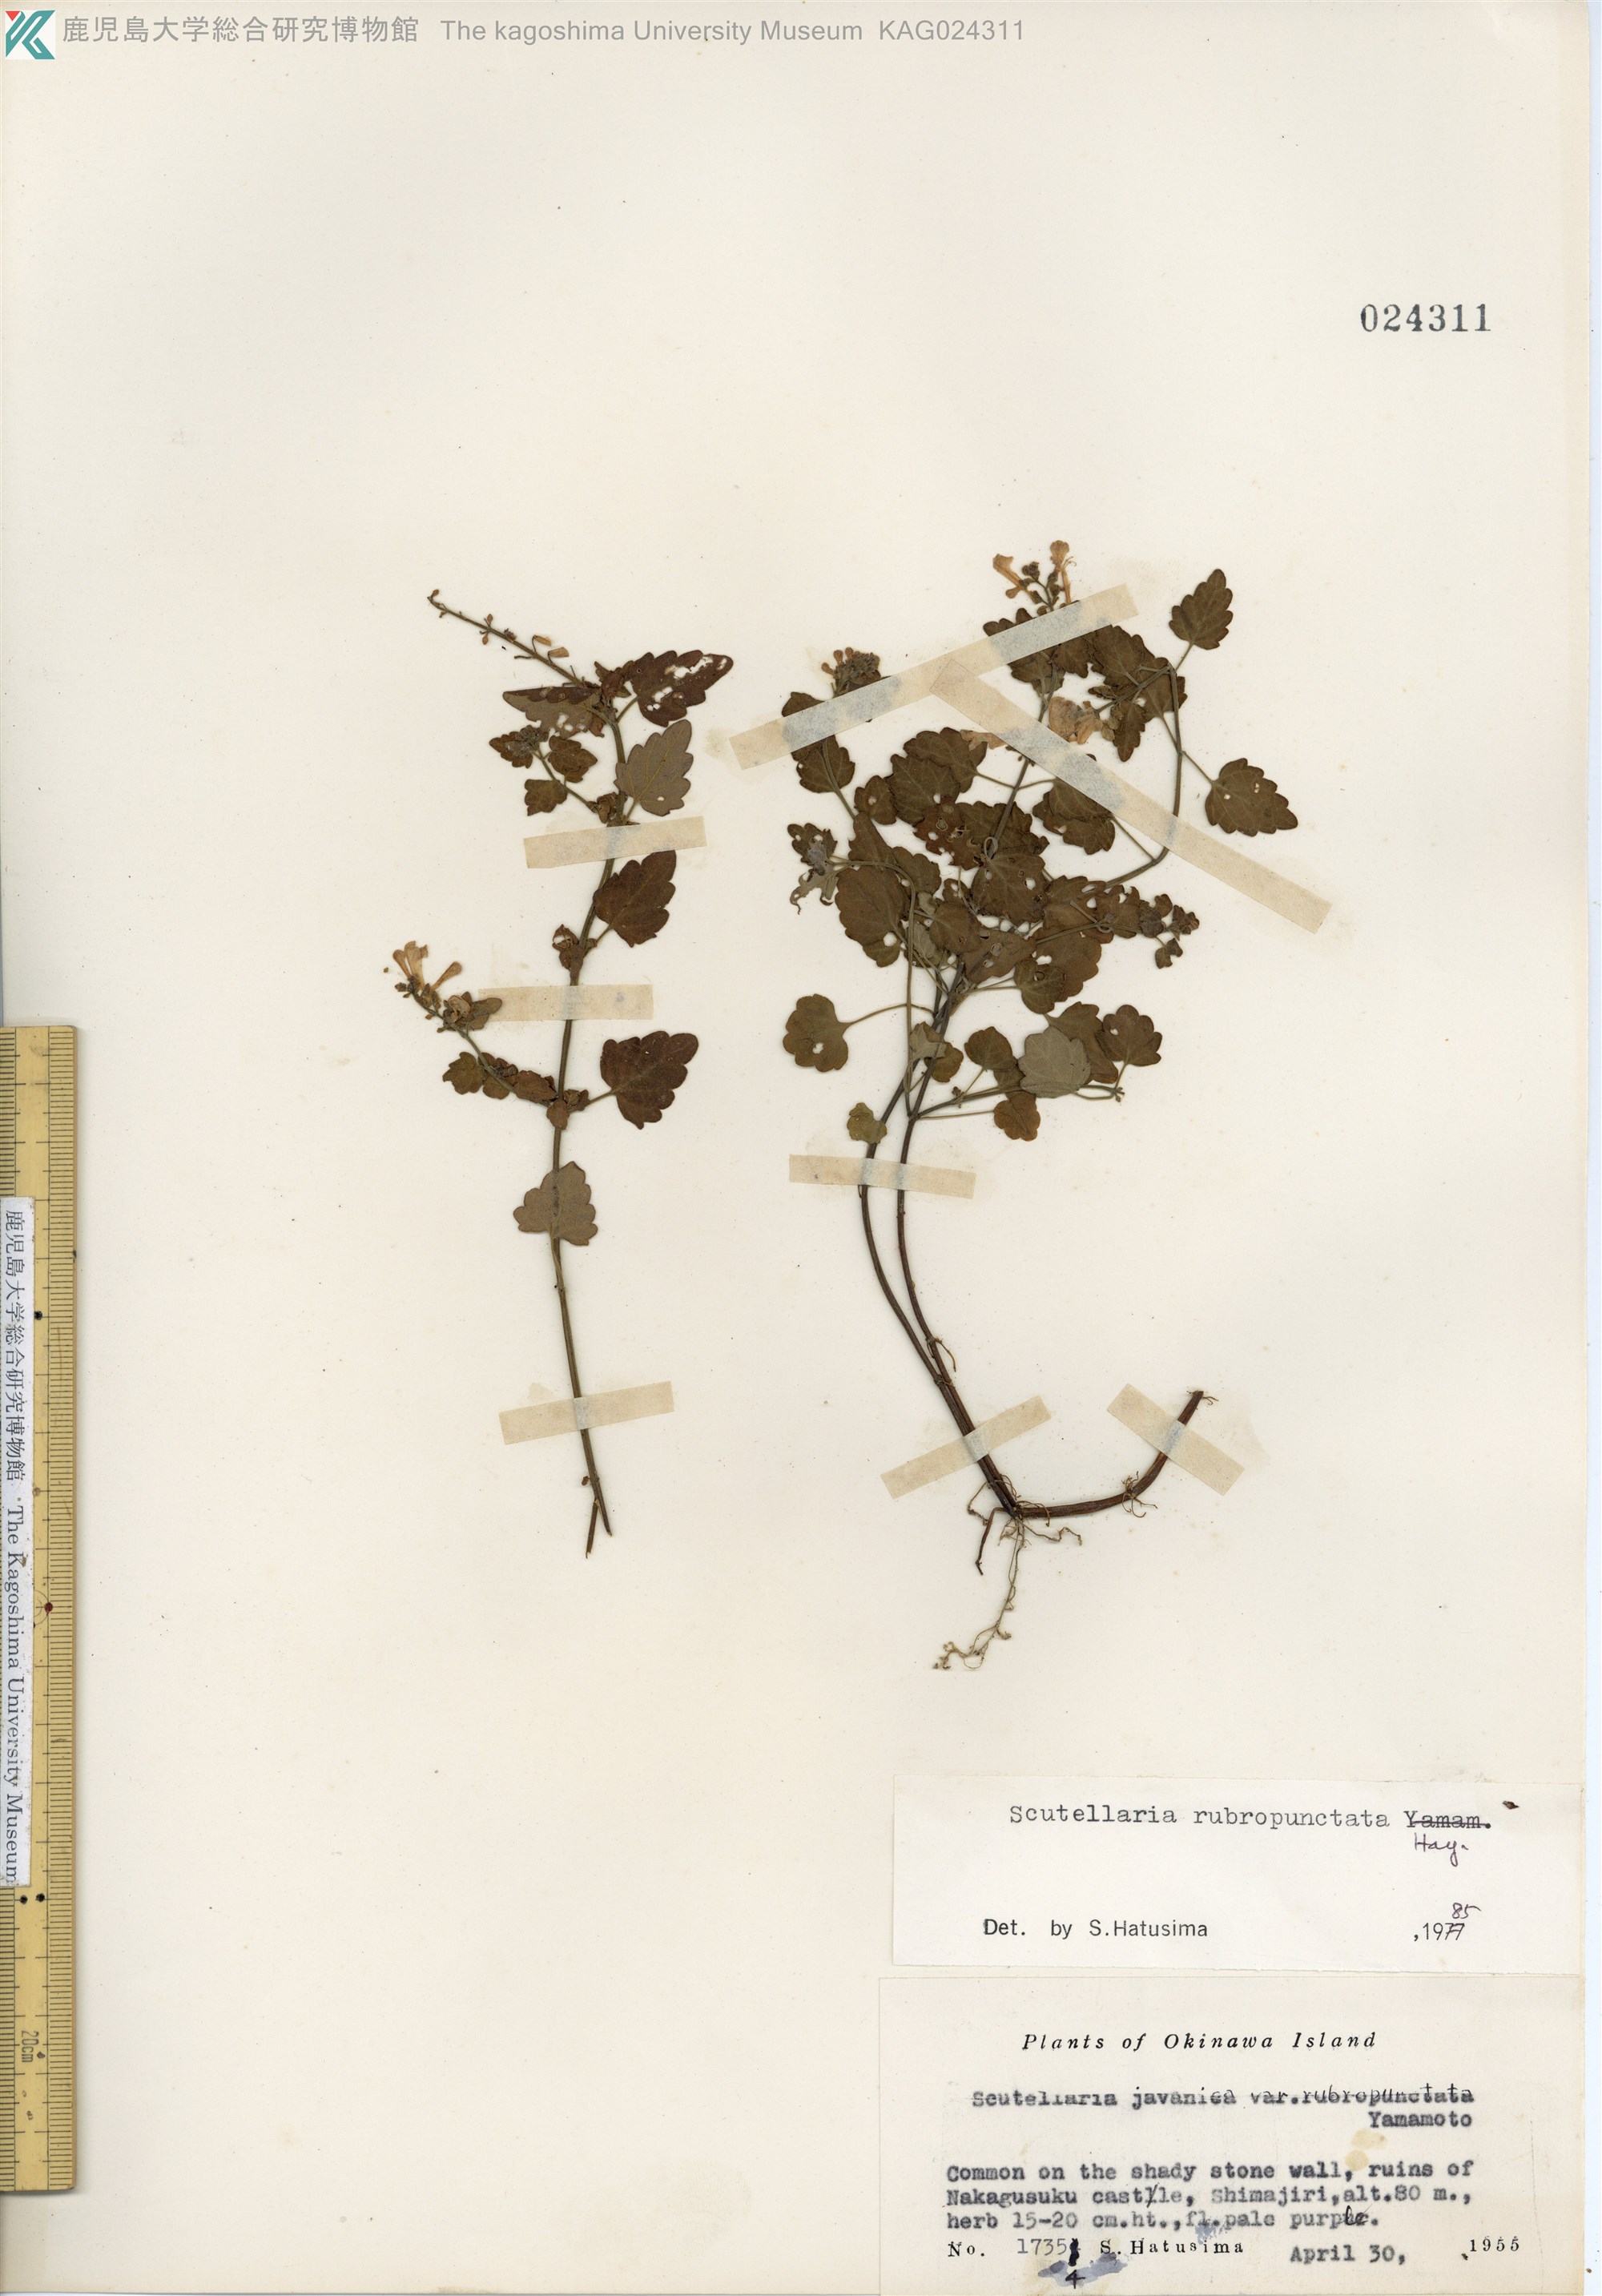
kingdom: Plantae
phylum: Tracheophyta
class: Magnoliopsida
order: Lamiales
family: Lamiaceae
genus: Scutellaria
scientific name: Scutellaria rubropunctata
